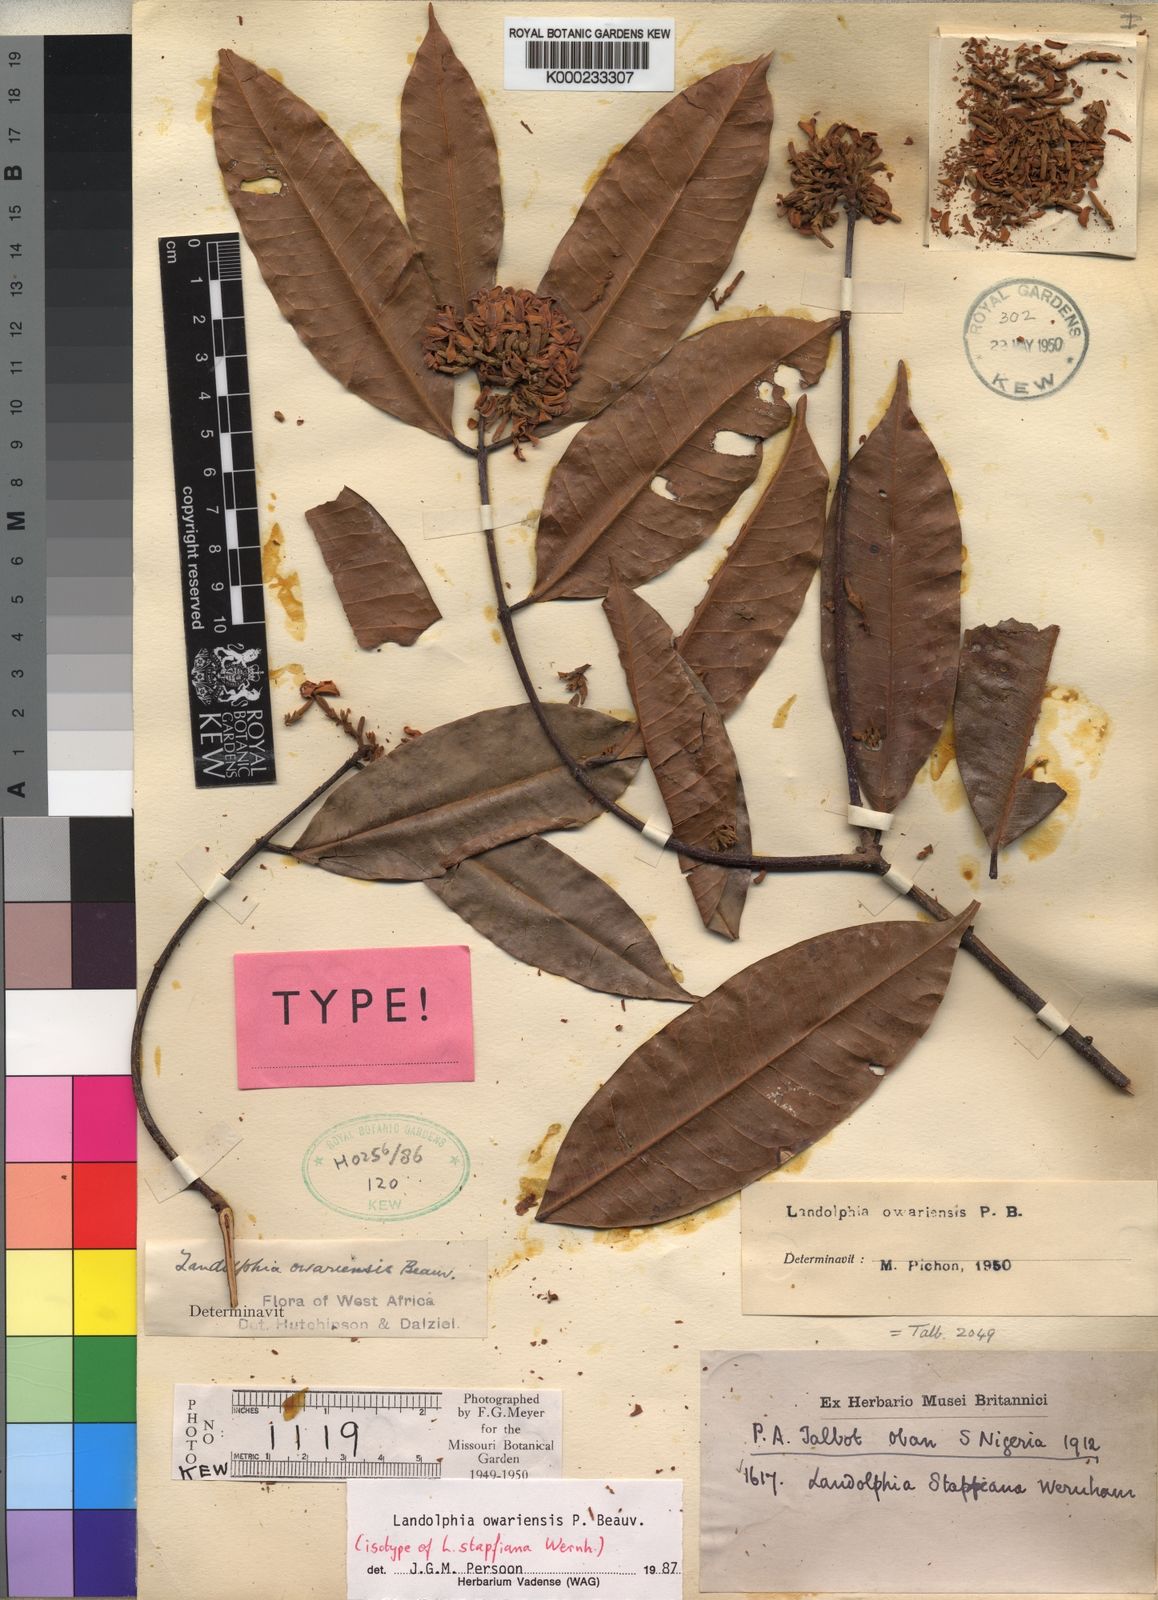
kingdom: Plantae
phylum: Tracheophyta
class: Magnoliopsida
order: Gentianales
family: Apocynaceae
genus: Landolphia
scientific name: Landolphia owariensis
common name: White-ball-rubber
